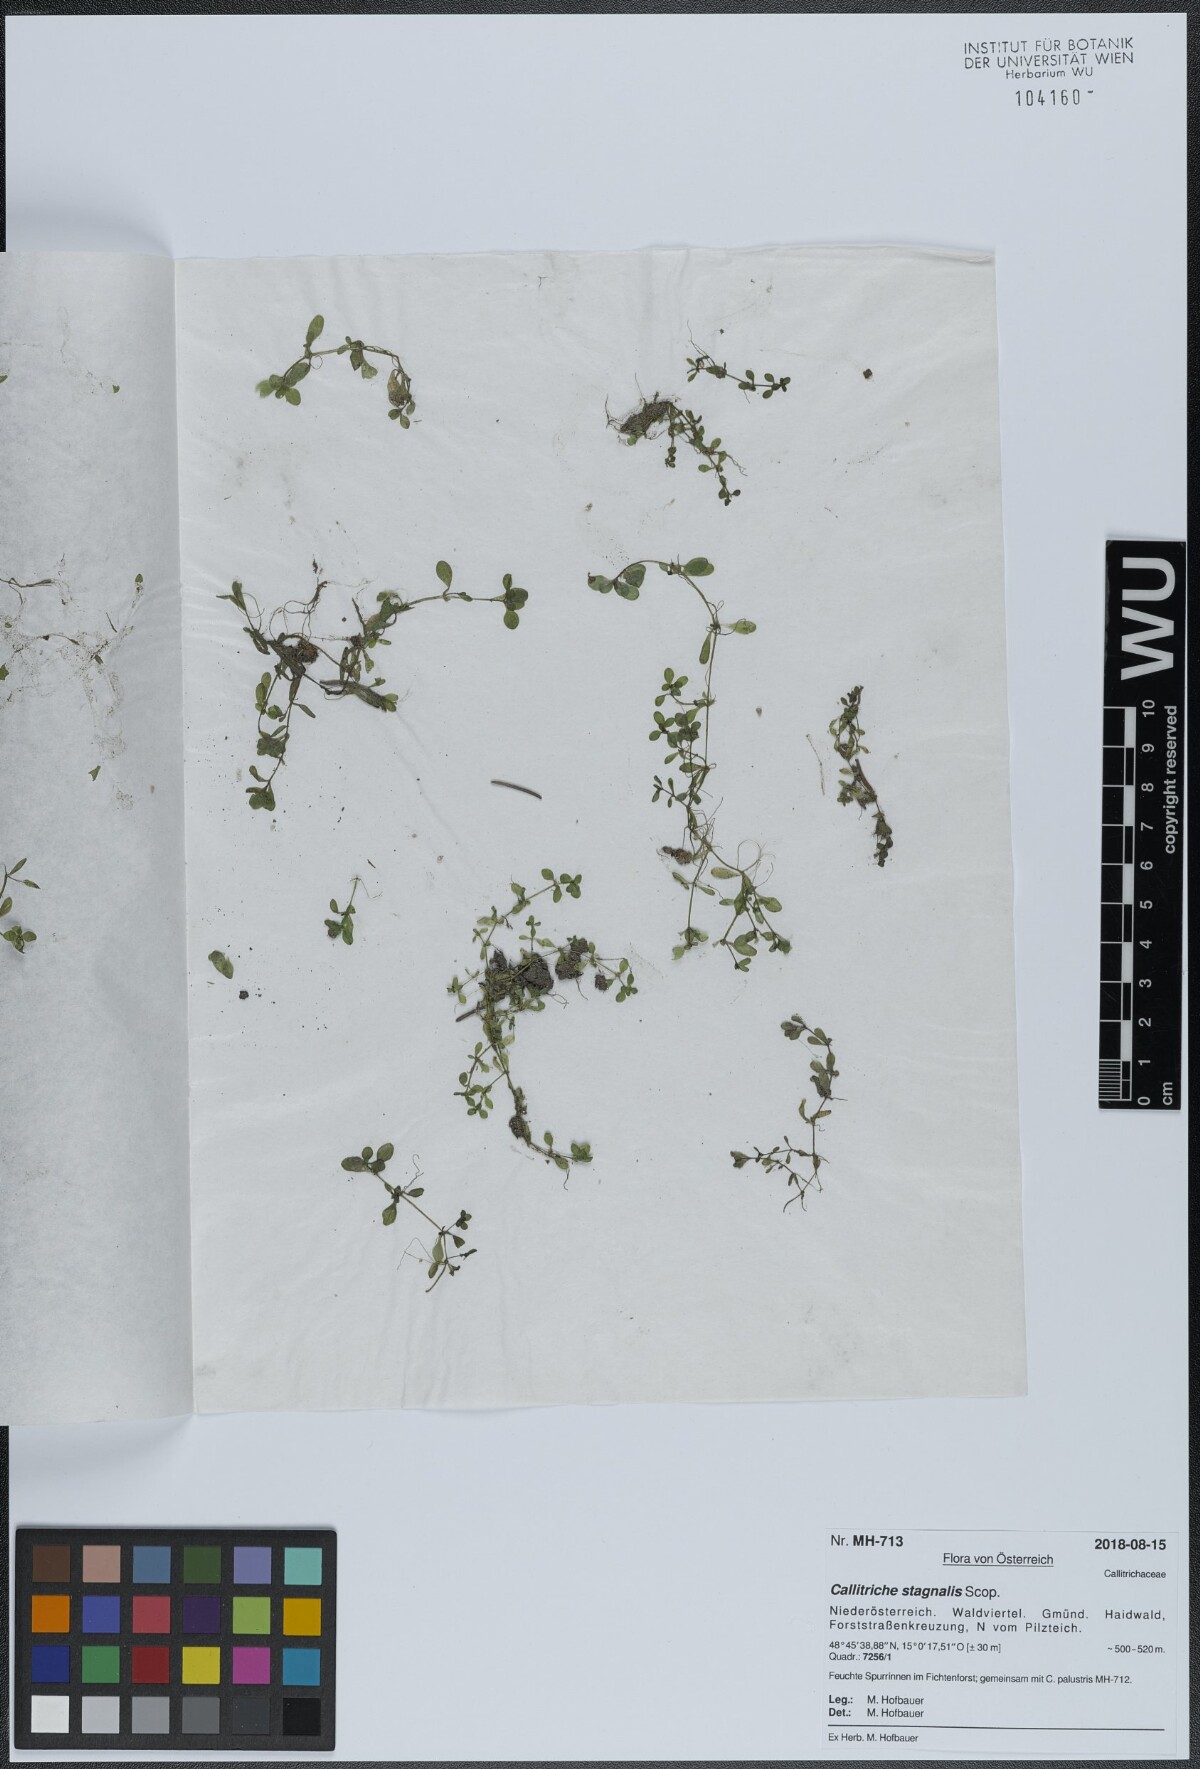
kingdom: Plantae
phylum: Tracheophyta
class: Magnoliopsida
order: Lamiales
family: Plantaginaceae
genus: Callitriche
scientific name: Callitriche stagnalis
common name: Common water-starwort
